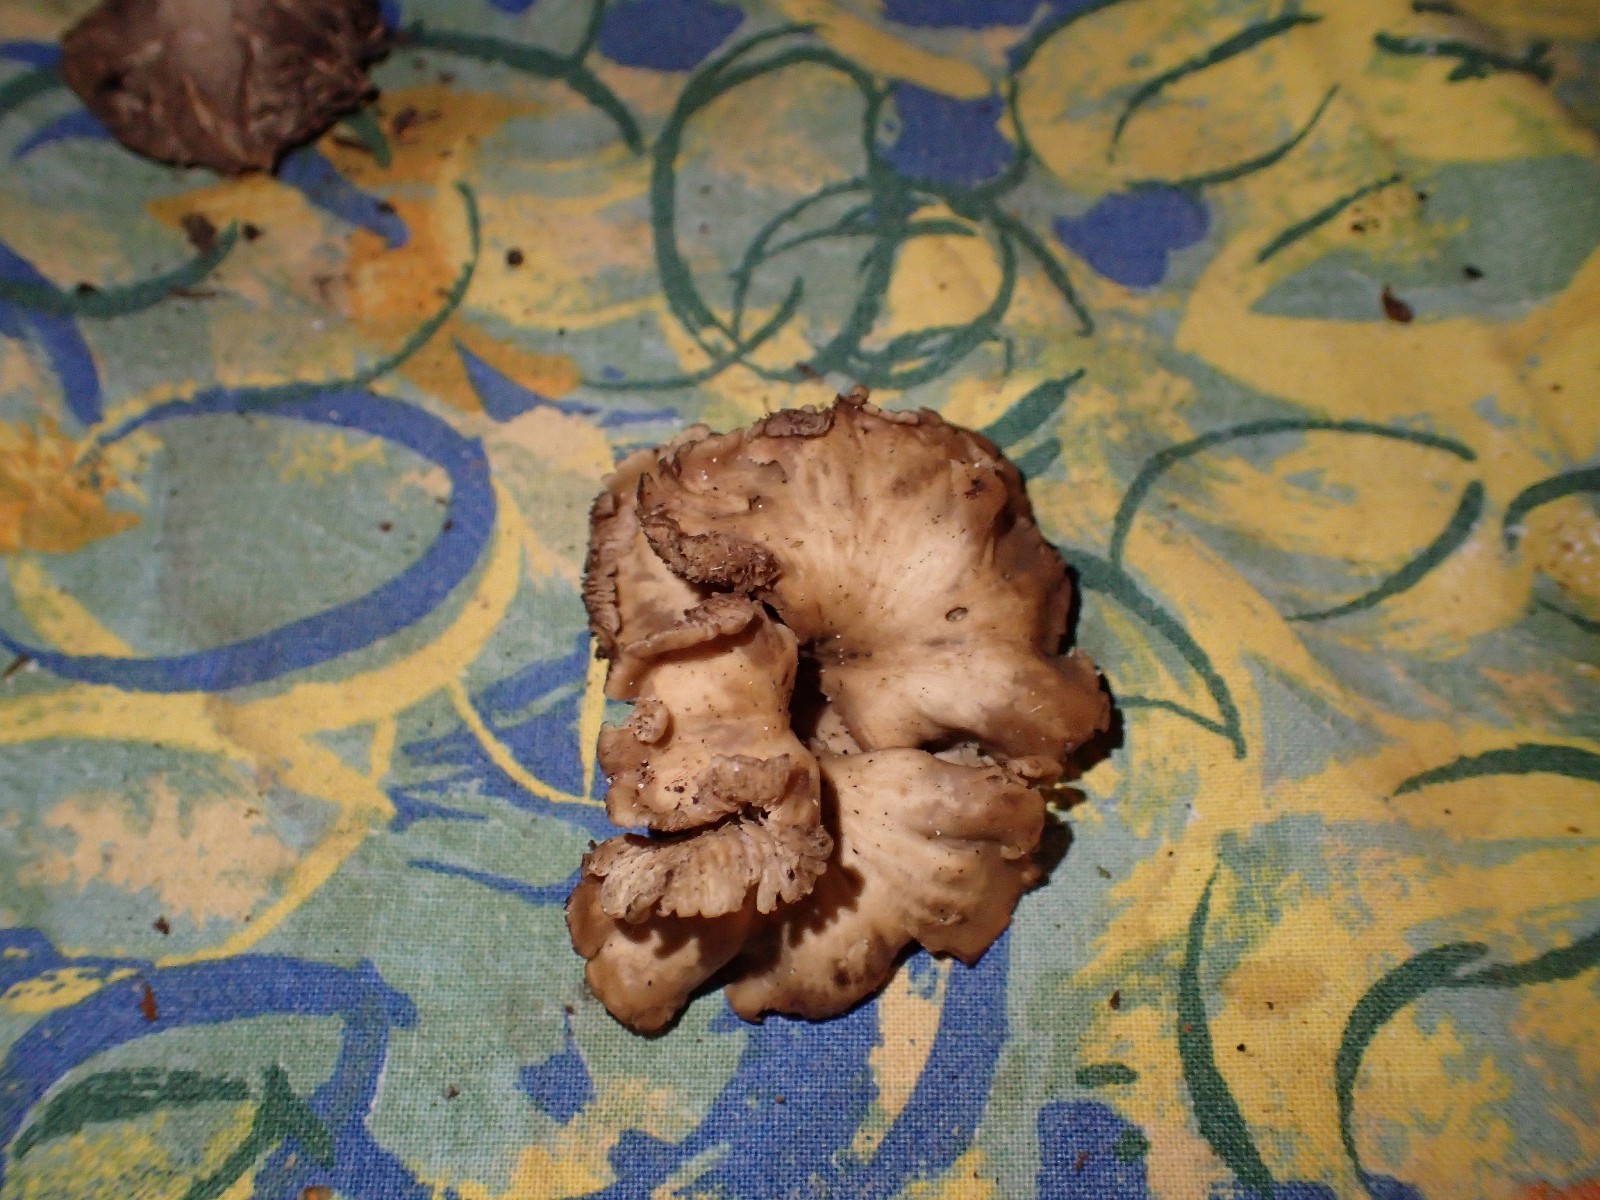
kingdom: Fungi
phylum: Basidiomycota
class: Agaricomycetes
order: Russulales
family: Auriscalpiaceae
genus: Lentinellus
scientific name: Lentinellus flabelliformis
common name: navle-savbladhat
